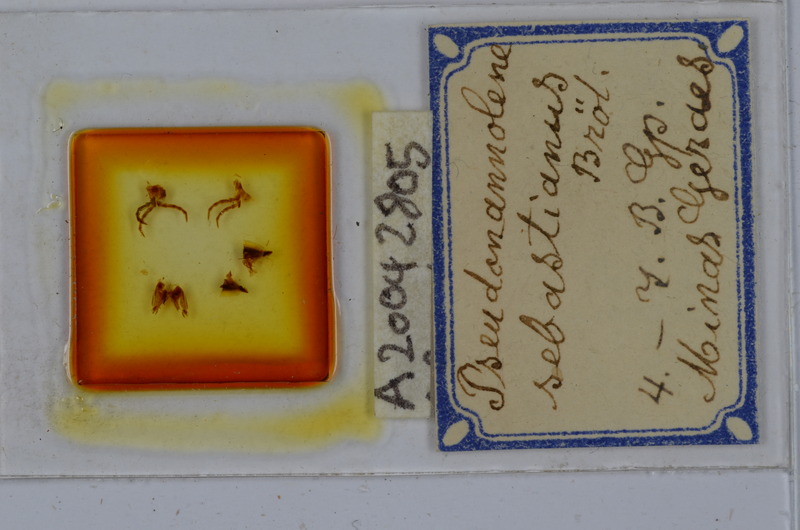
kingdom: Animalia
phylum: Arthropoda
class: Diplopoda
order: Spirostreptida
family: Pseudonannolenidae
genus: Pseudonannolene
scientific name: Pseudonannolene sebastianus
